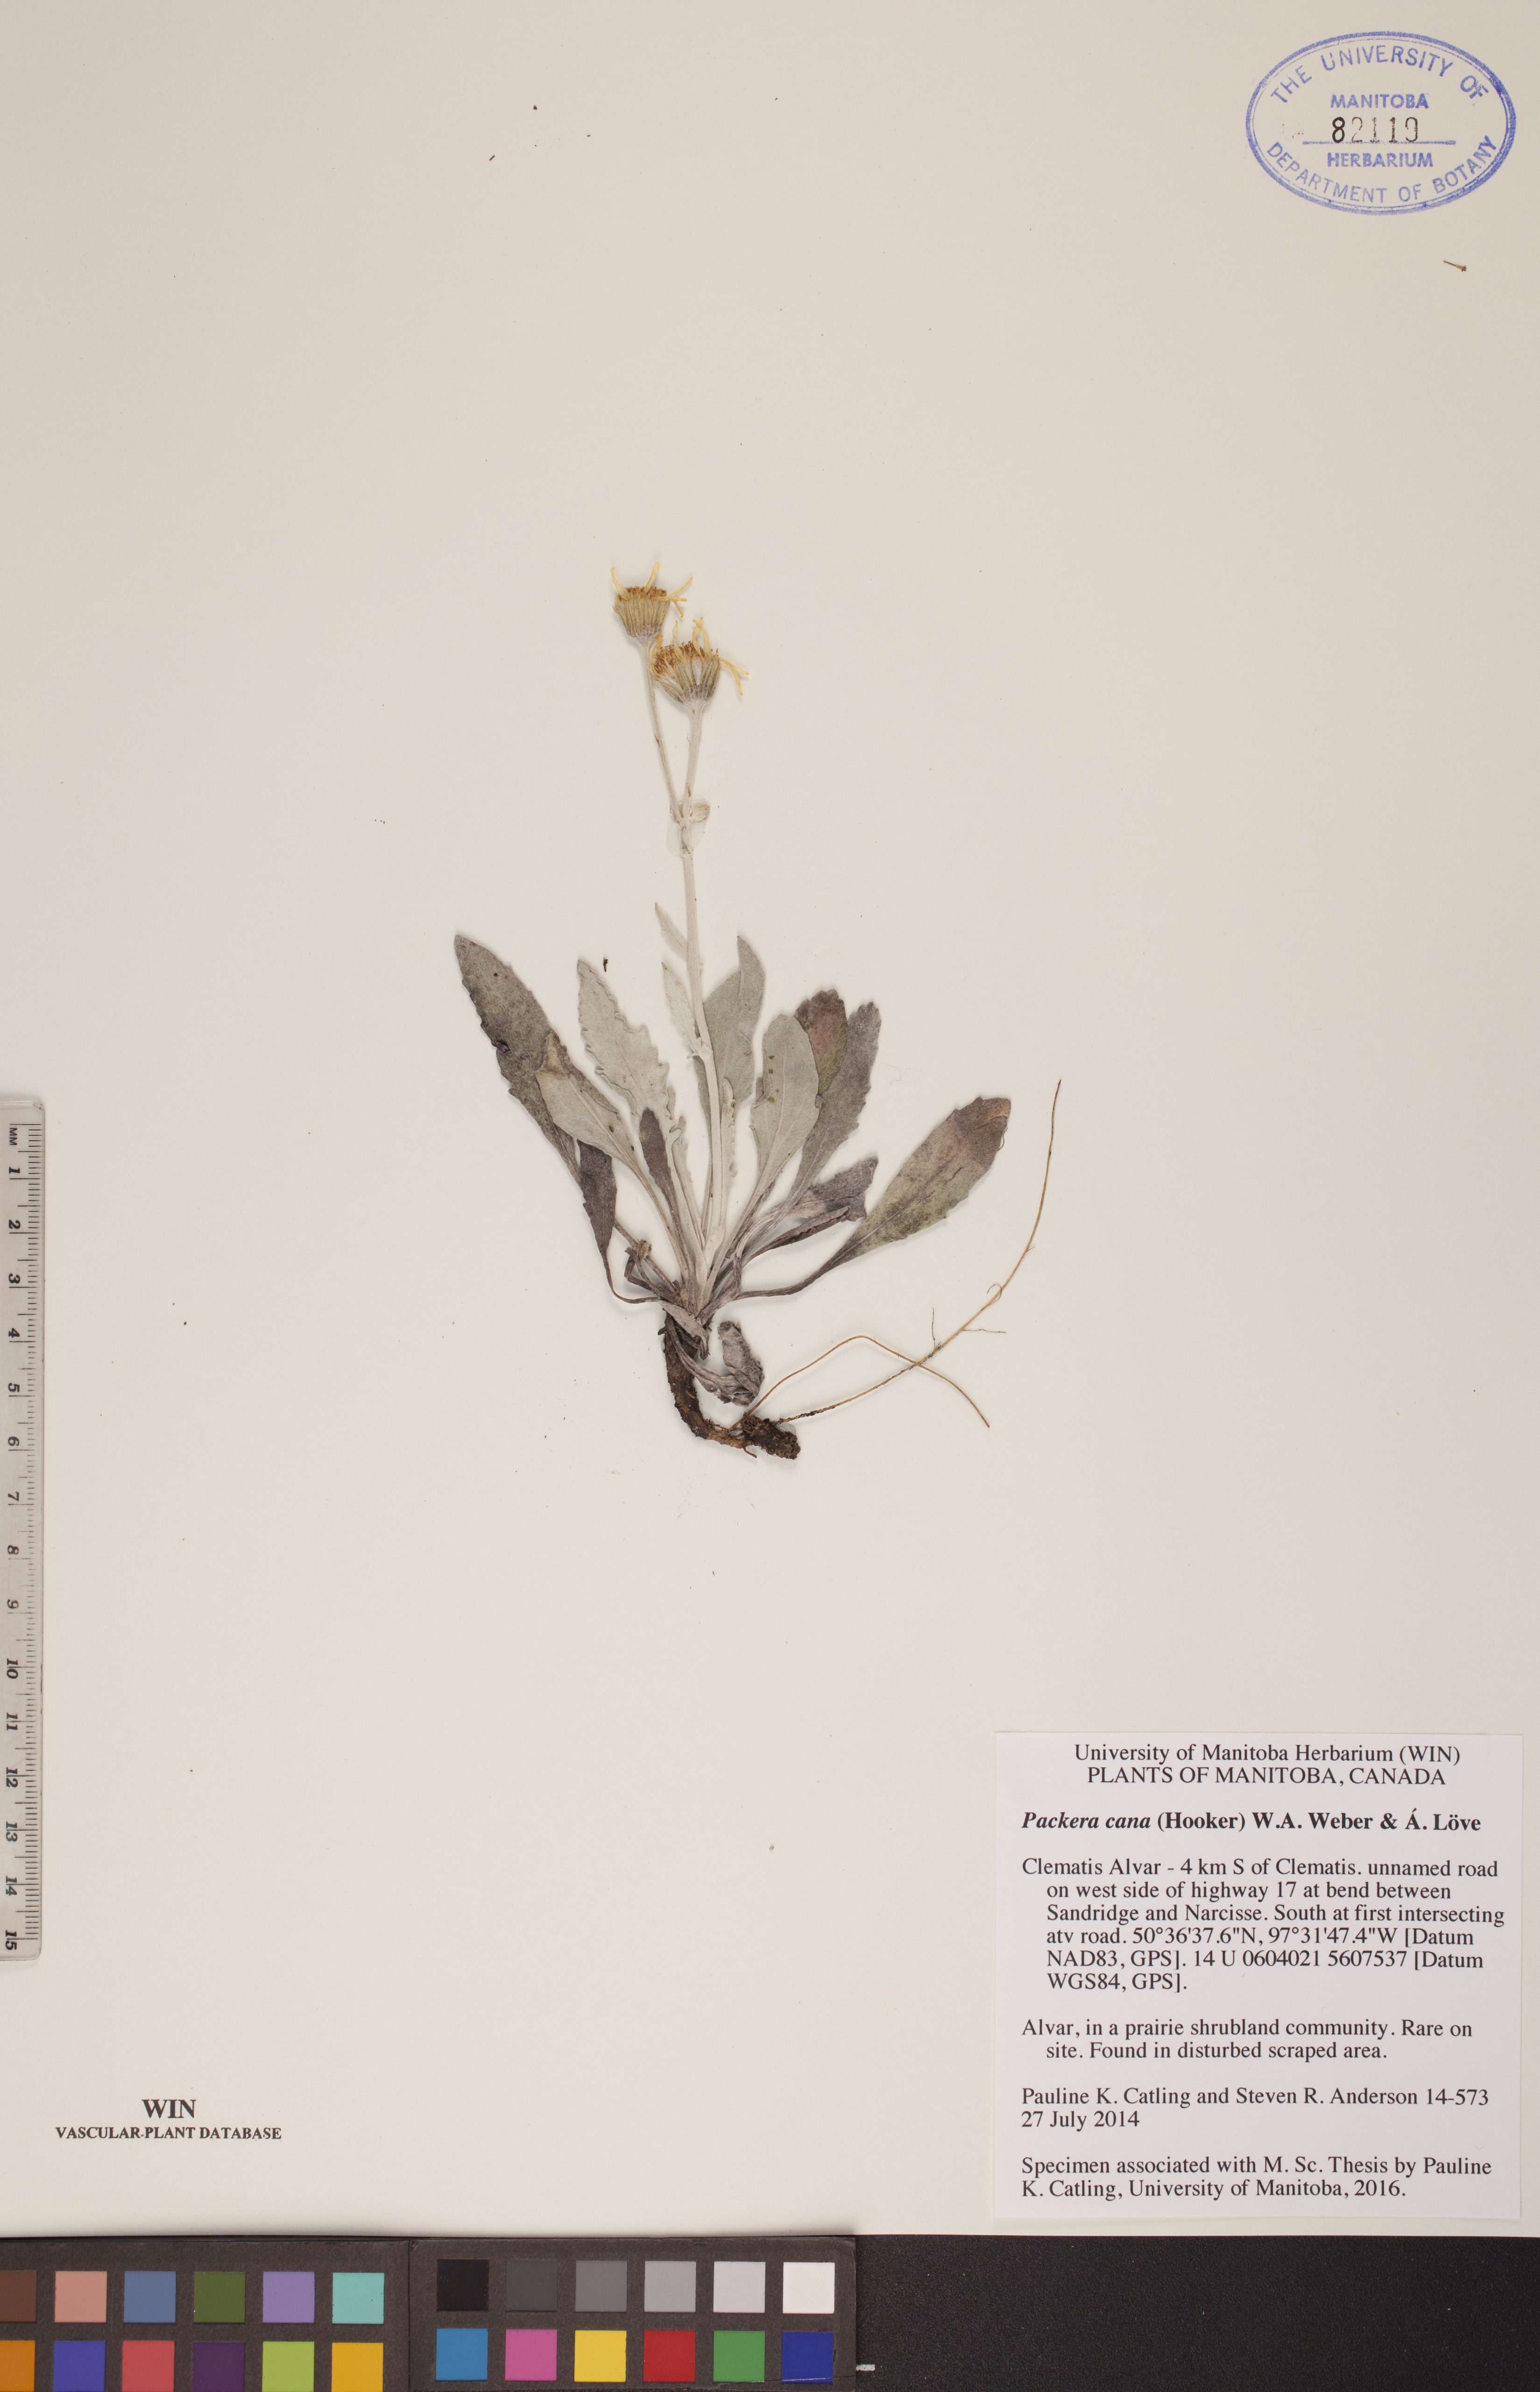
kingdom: Plantae
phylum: Tracheophyta
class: Magnoliopsida
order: Asterales
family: Asteraceae
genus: Packera
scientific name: Packera cana
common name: Woolly groundsel
